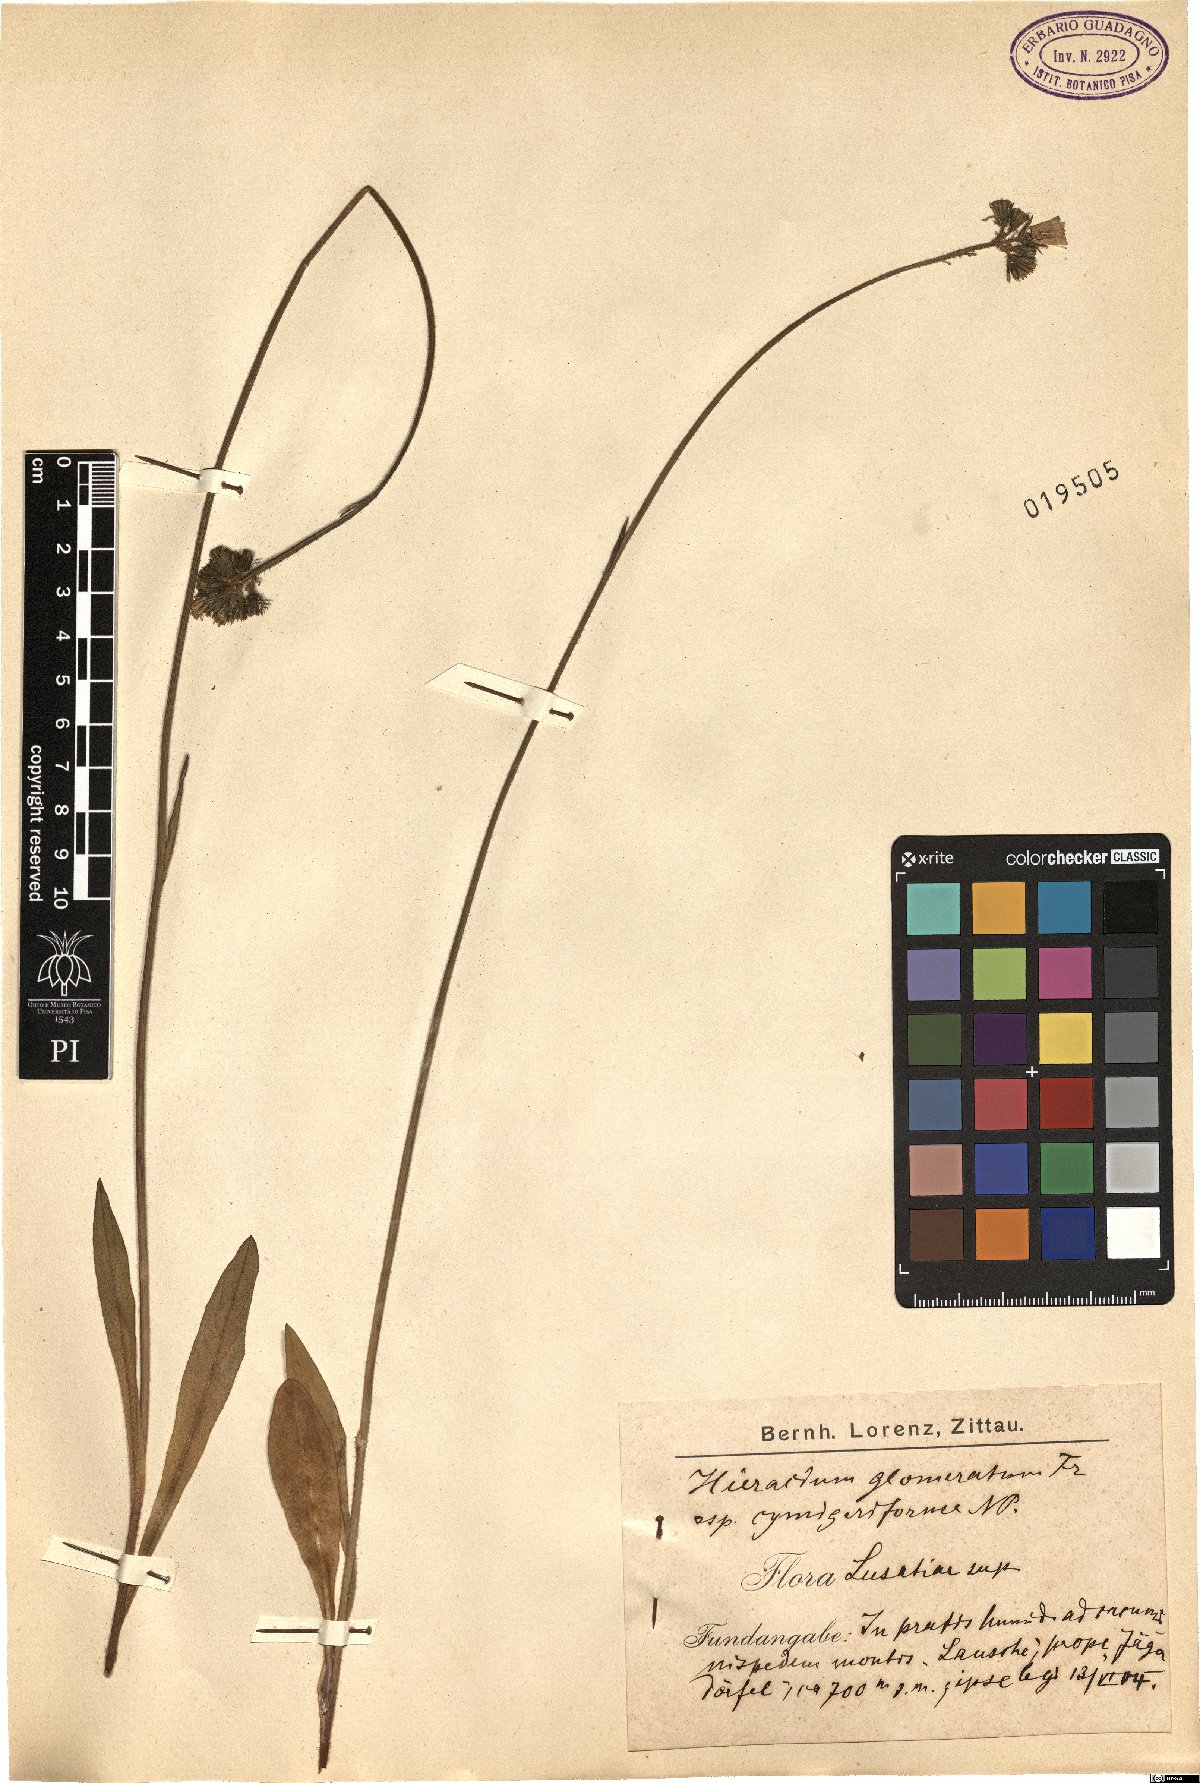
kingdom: Plantae
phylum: Tracheophyta
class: Magnoliopsida
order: Asterales
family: Asteraceae
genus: Pilosella
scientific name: Pilosella glomerata
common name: Queen devil hawkweed
